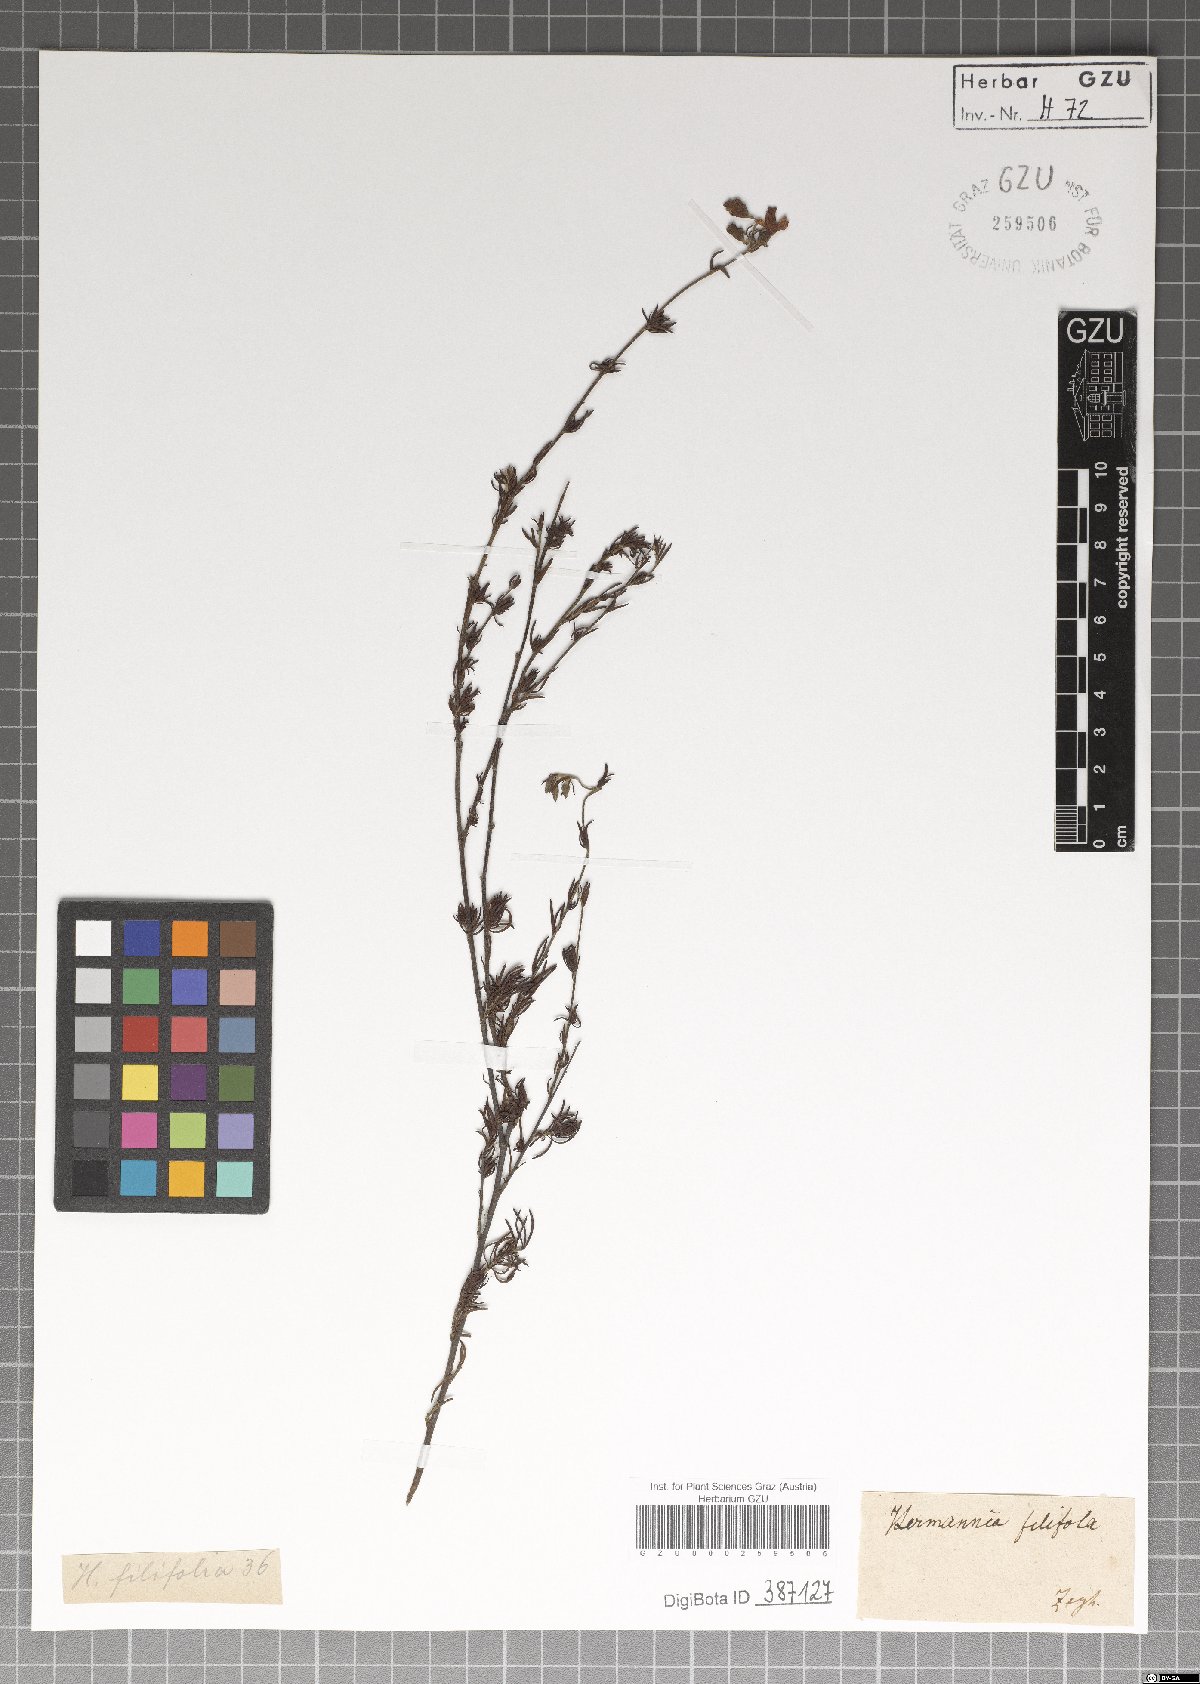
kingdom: Plantae
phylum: Tracheophyta
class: Magnoliopsida
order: Malvales
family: Malvaceae
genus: Hermannia
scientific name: Hermannia filifolia
